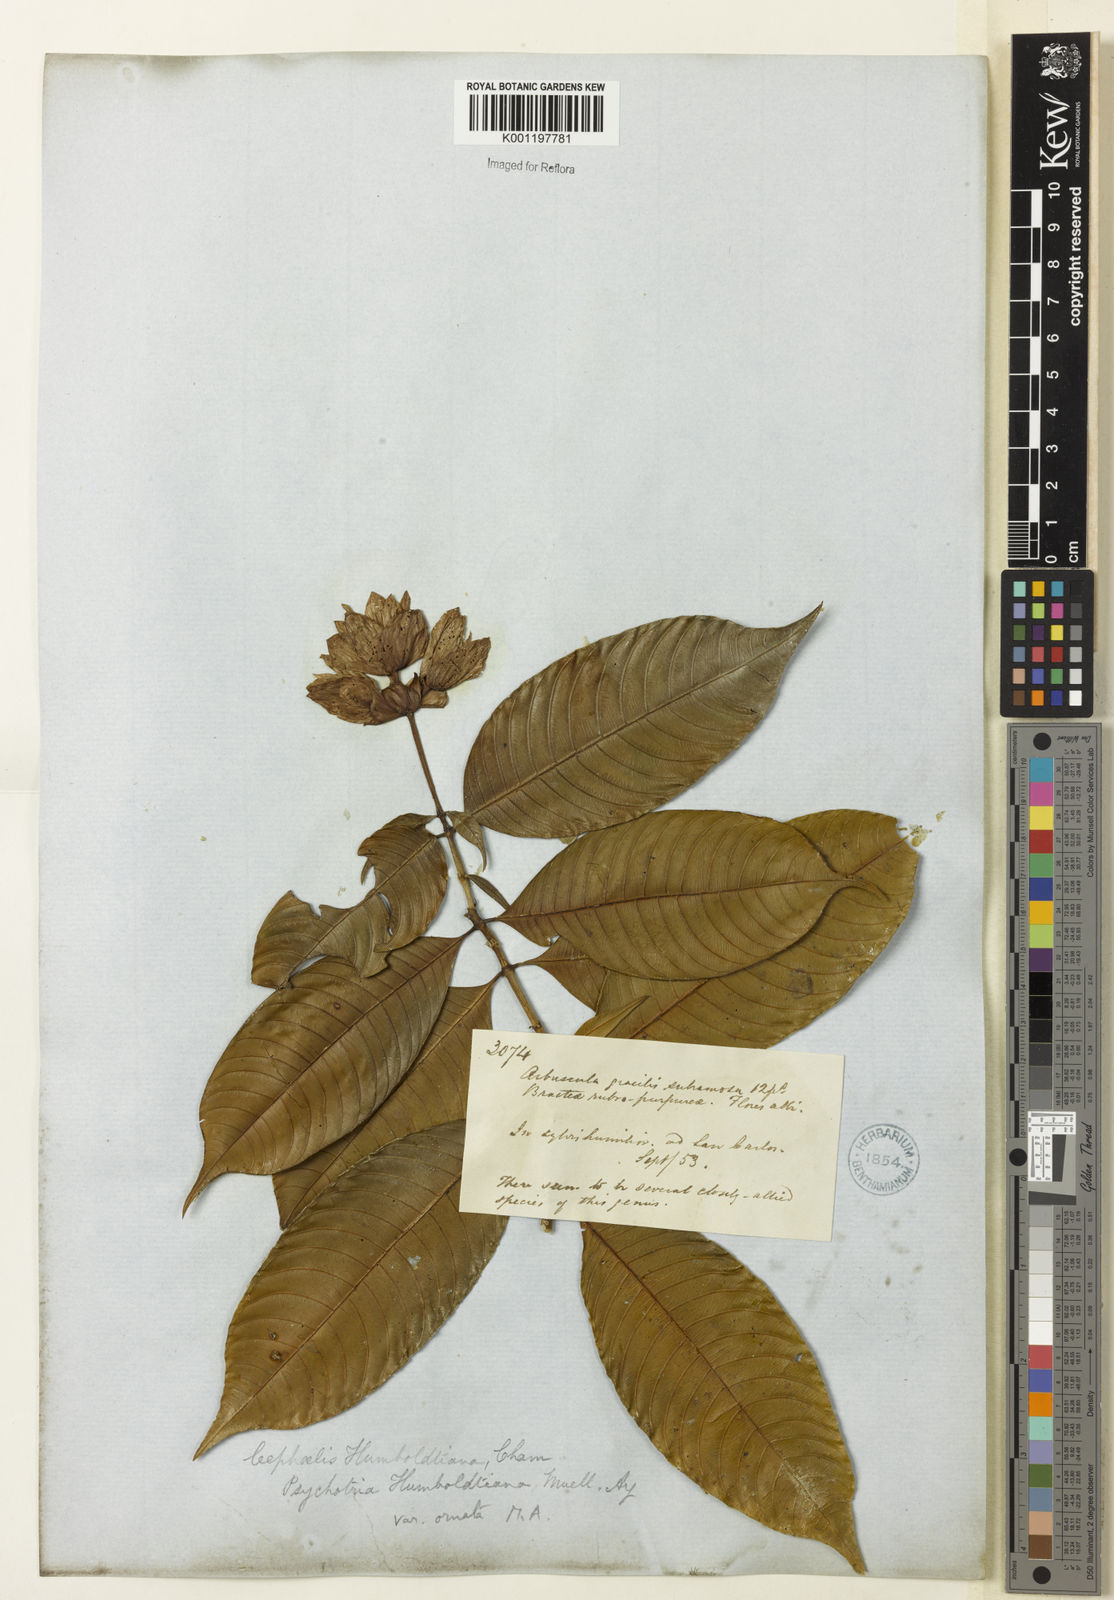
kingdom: Plantae
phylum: Tracheophyta
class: Magnoliopsida
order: Gentianales
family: Rubiaceae
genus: Psychotria
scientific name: Psychotria
